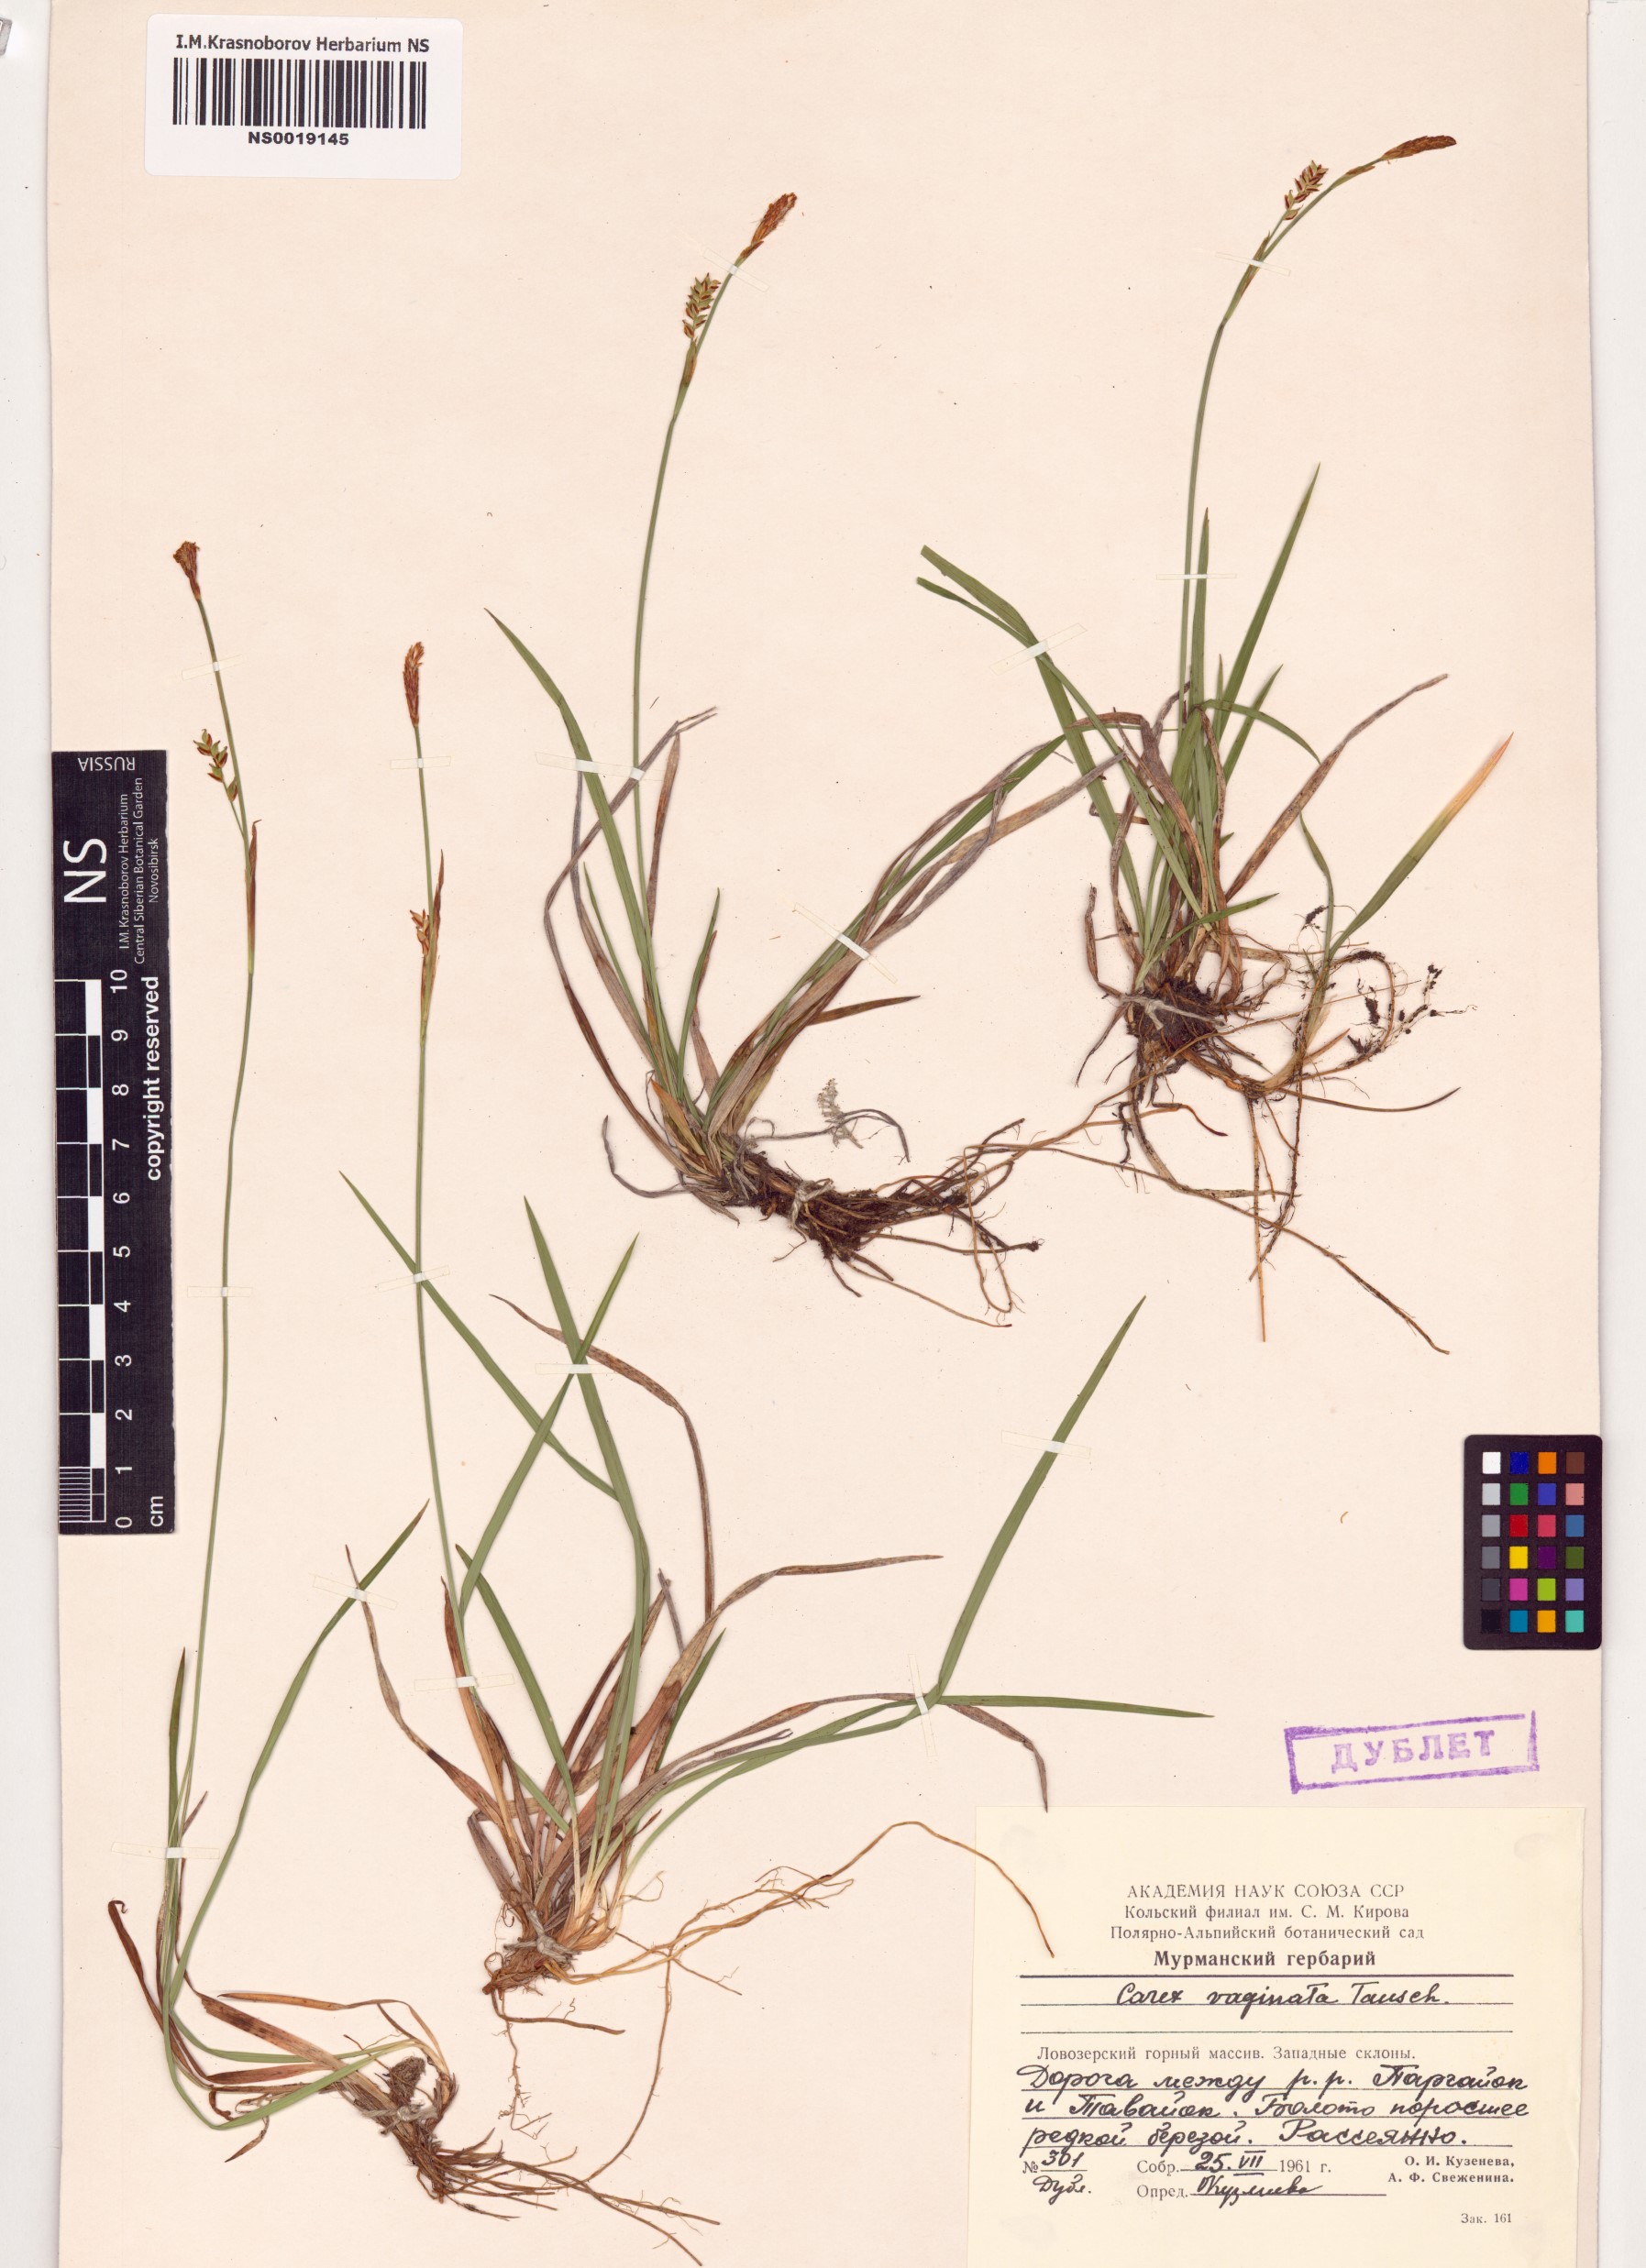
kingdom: Plantae
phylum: Tracheophyta
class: Liliopsida
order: Poales
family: Cyperaceae
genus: Carex
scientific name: Carex vaginata
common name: Sheathed sedge
